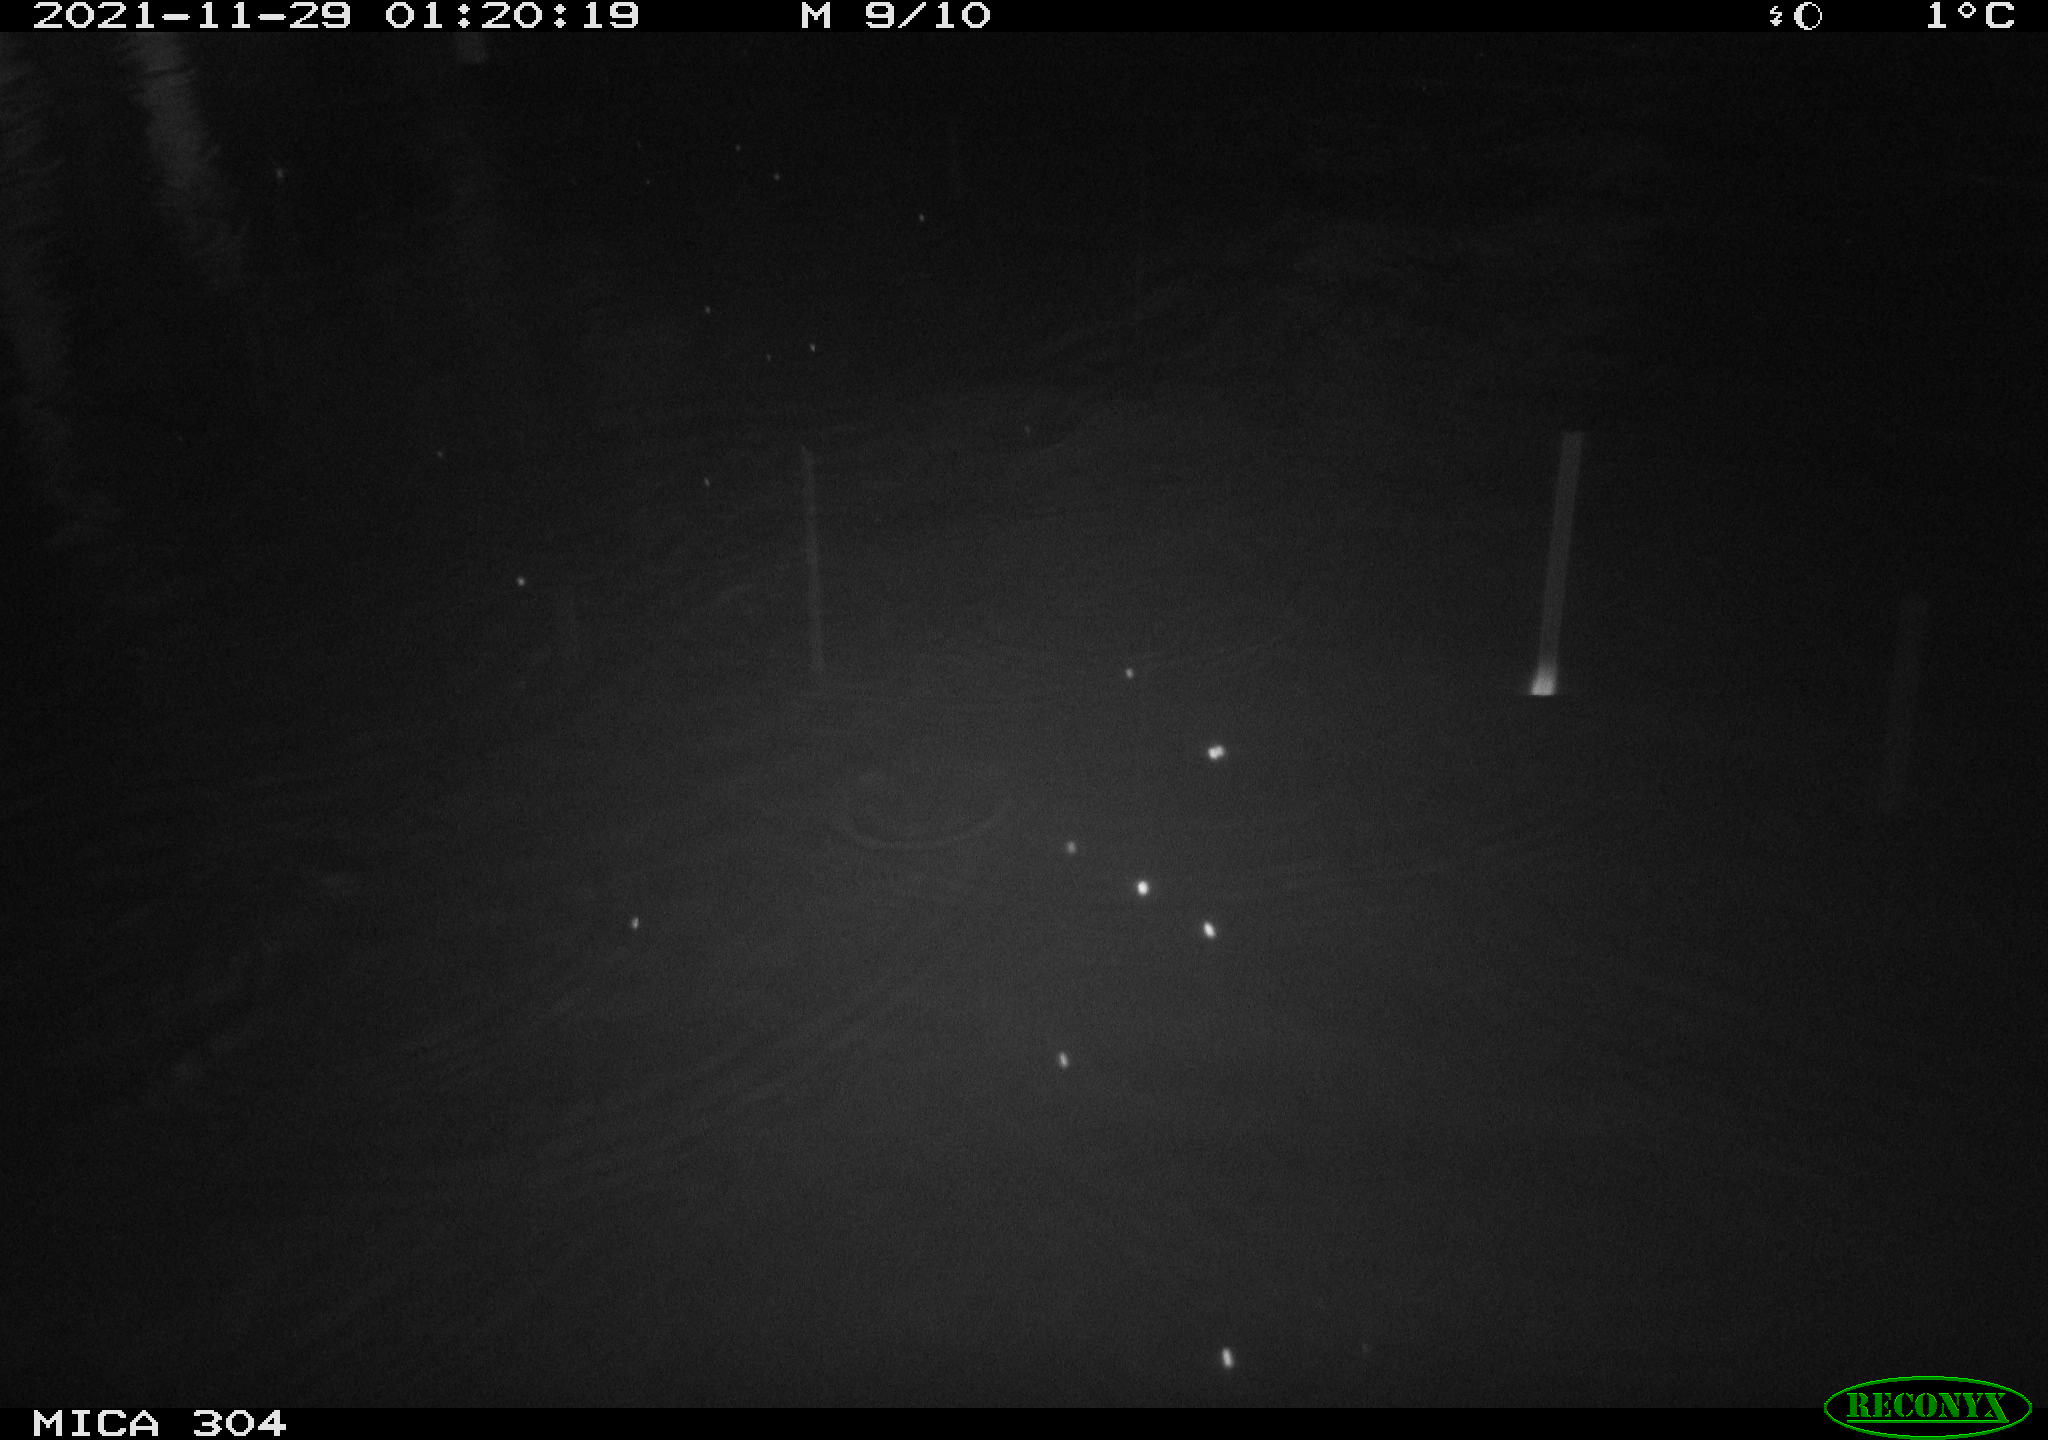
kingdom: Animalia
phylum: Chordata
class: Mammalia
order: Rodentia
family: Muridae
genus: Rattus
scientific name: Rattus norvegicus
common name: Brown rat
